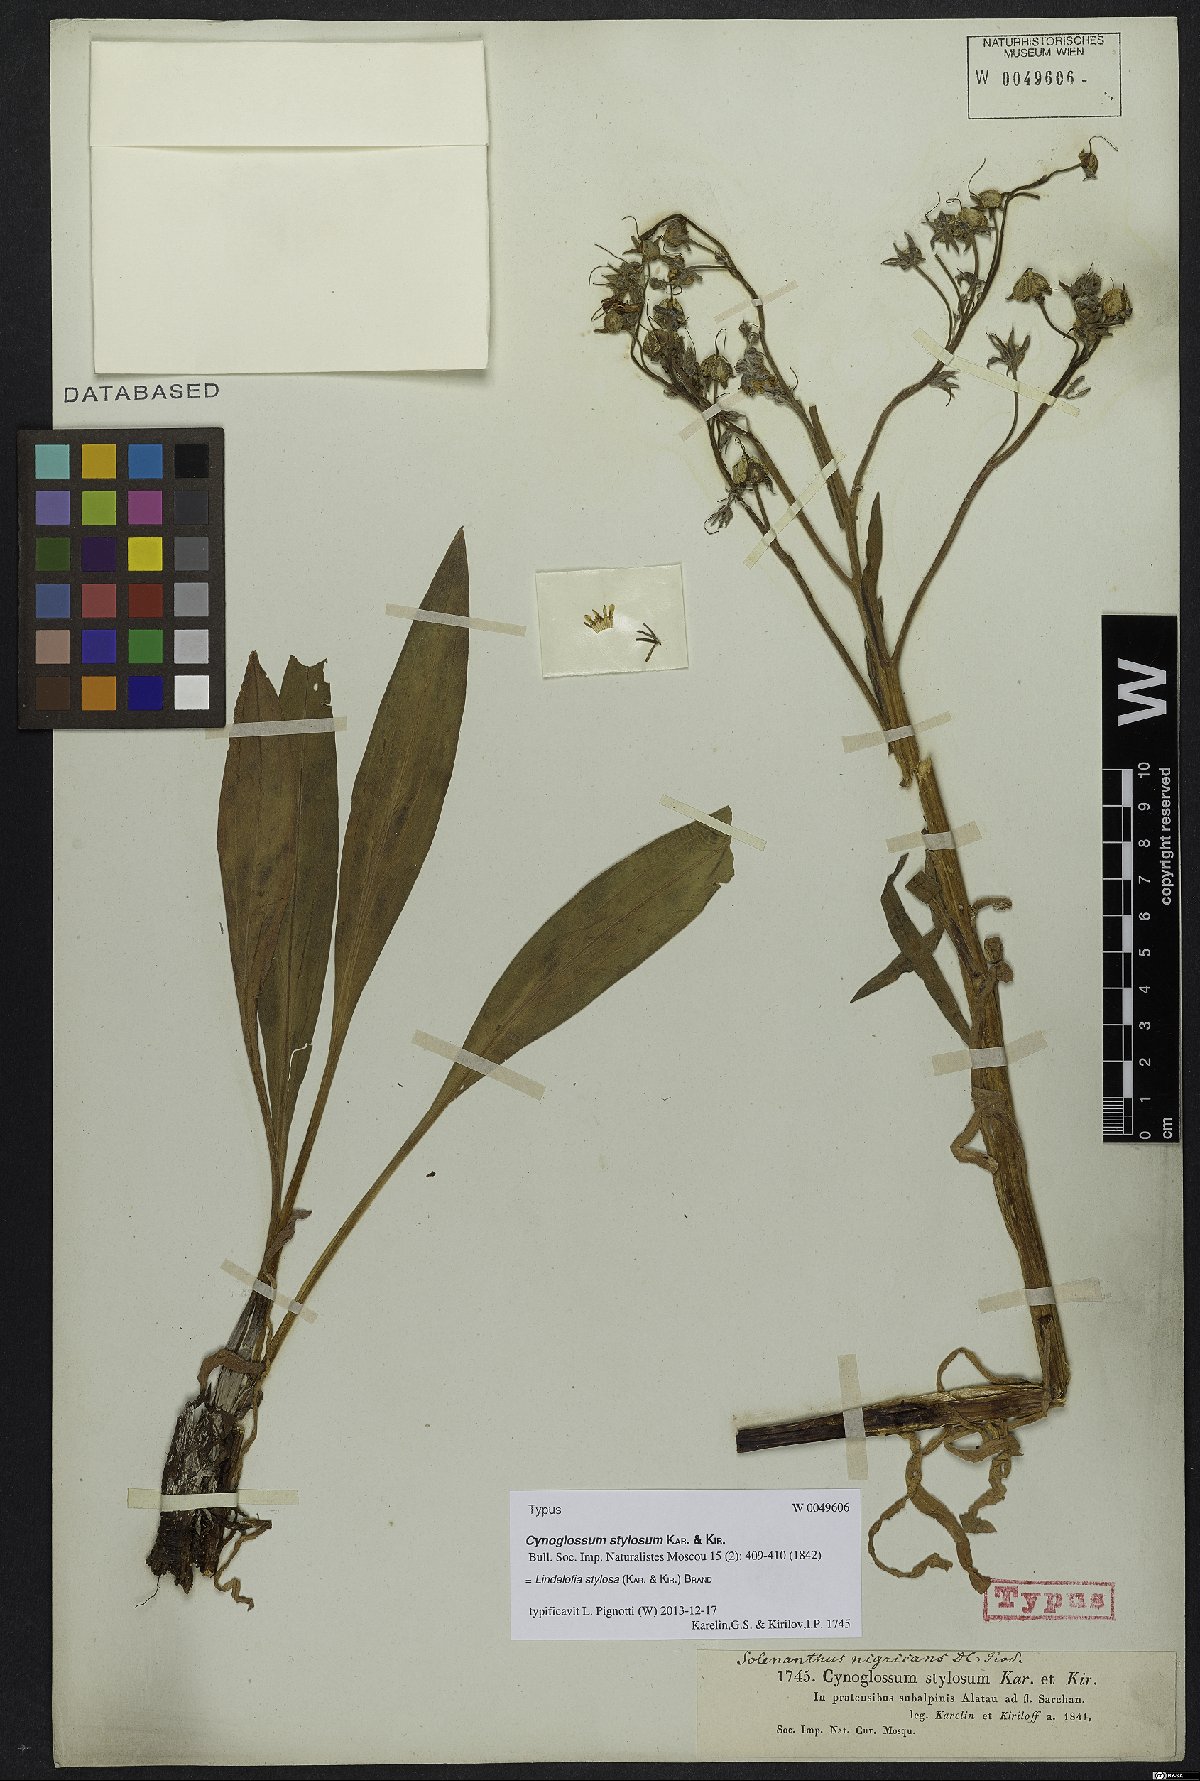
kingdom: Plantae
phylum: Tracheophyta
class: Magnoliopsida
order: Boraginales
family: Boraginaceae
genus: Lindelofia
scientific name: Lindelofia stylosa
